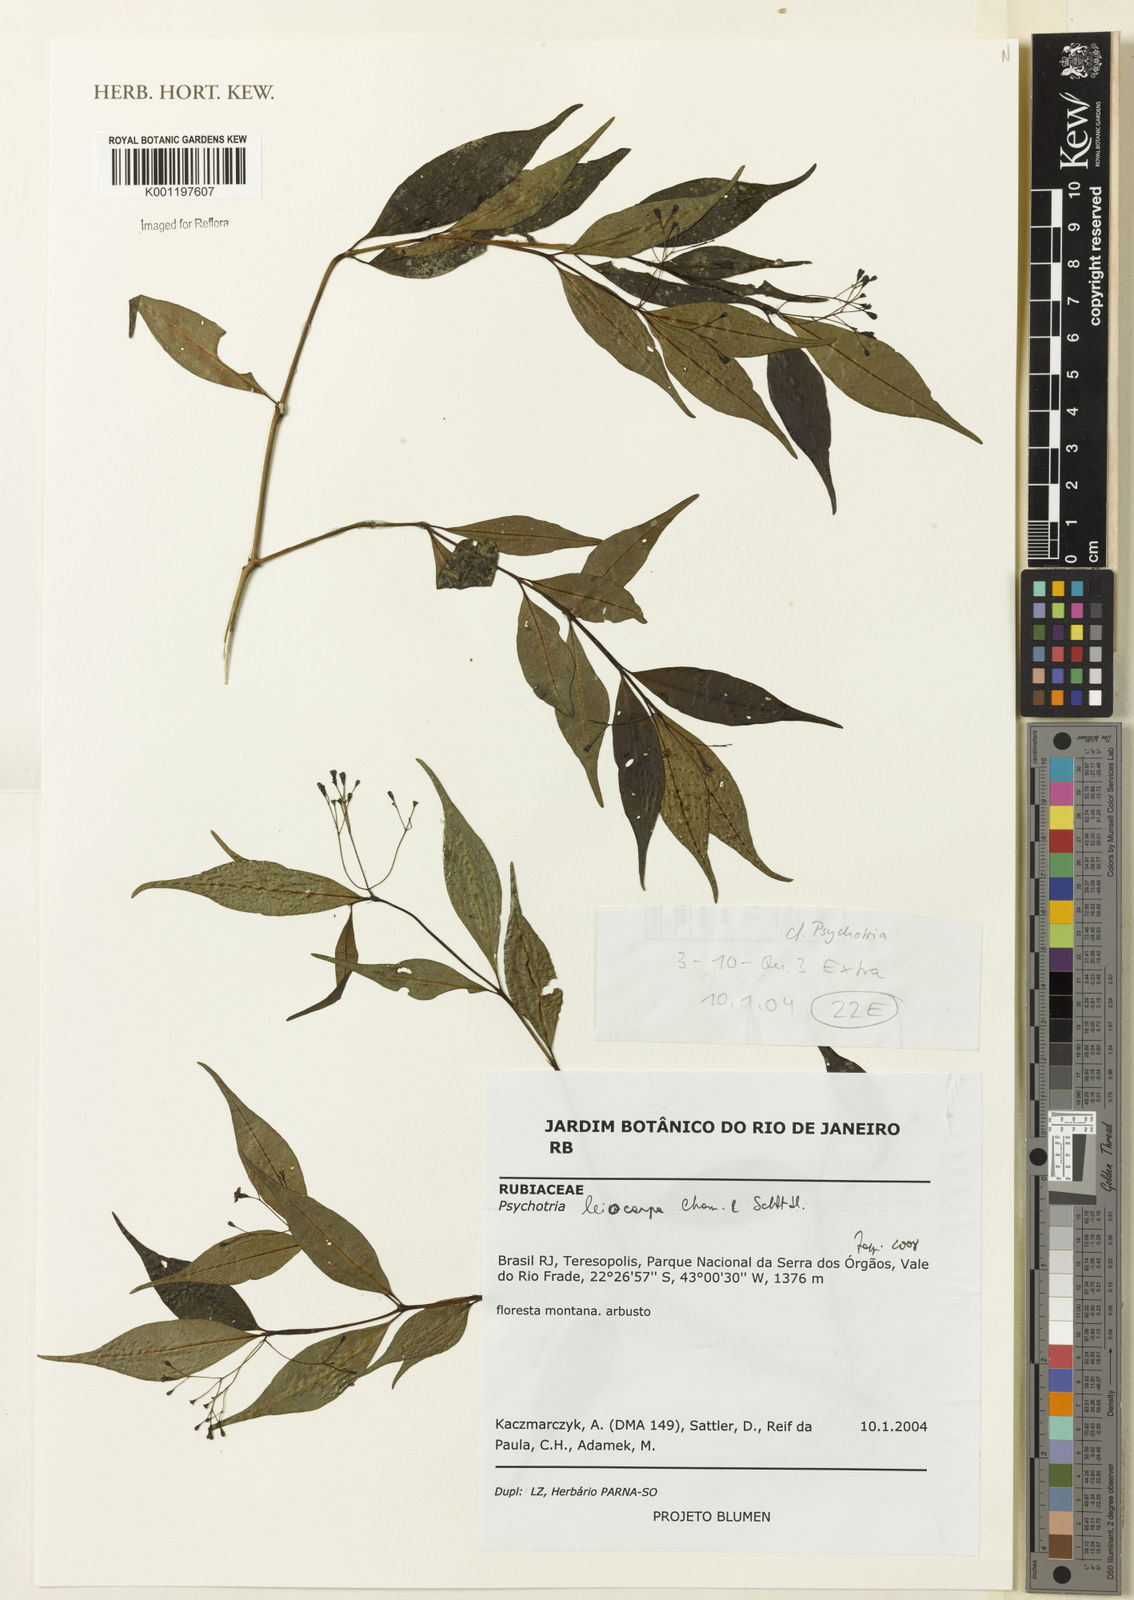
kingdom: Plantae
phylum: Tracheophyta
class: Magnoliopsida
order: Gentianales
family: Rubiaceae
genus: Psychotria
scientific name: Psychotria leiocarpa
